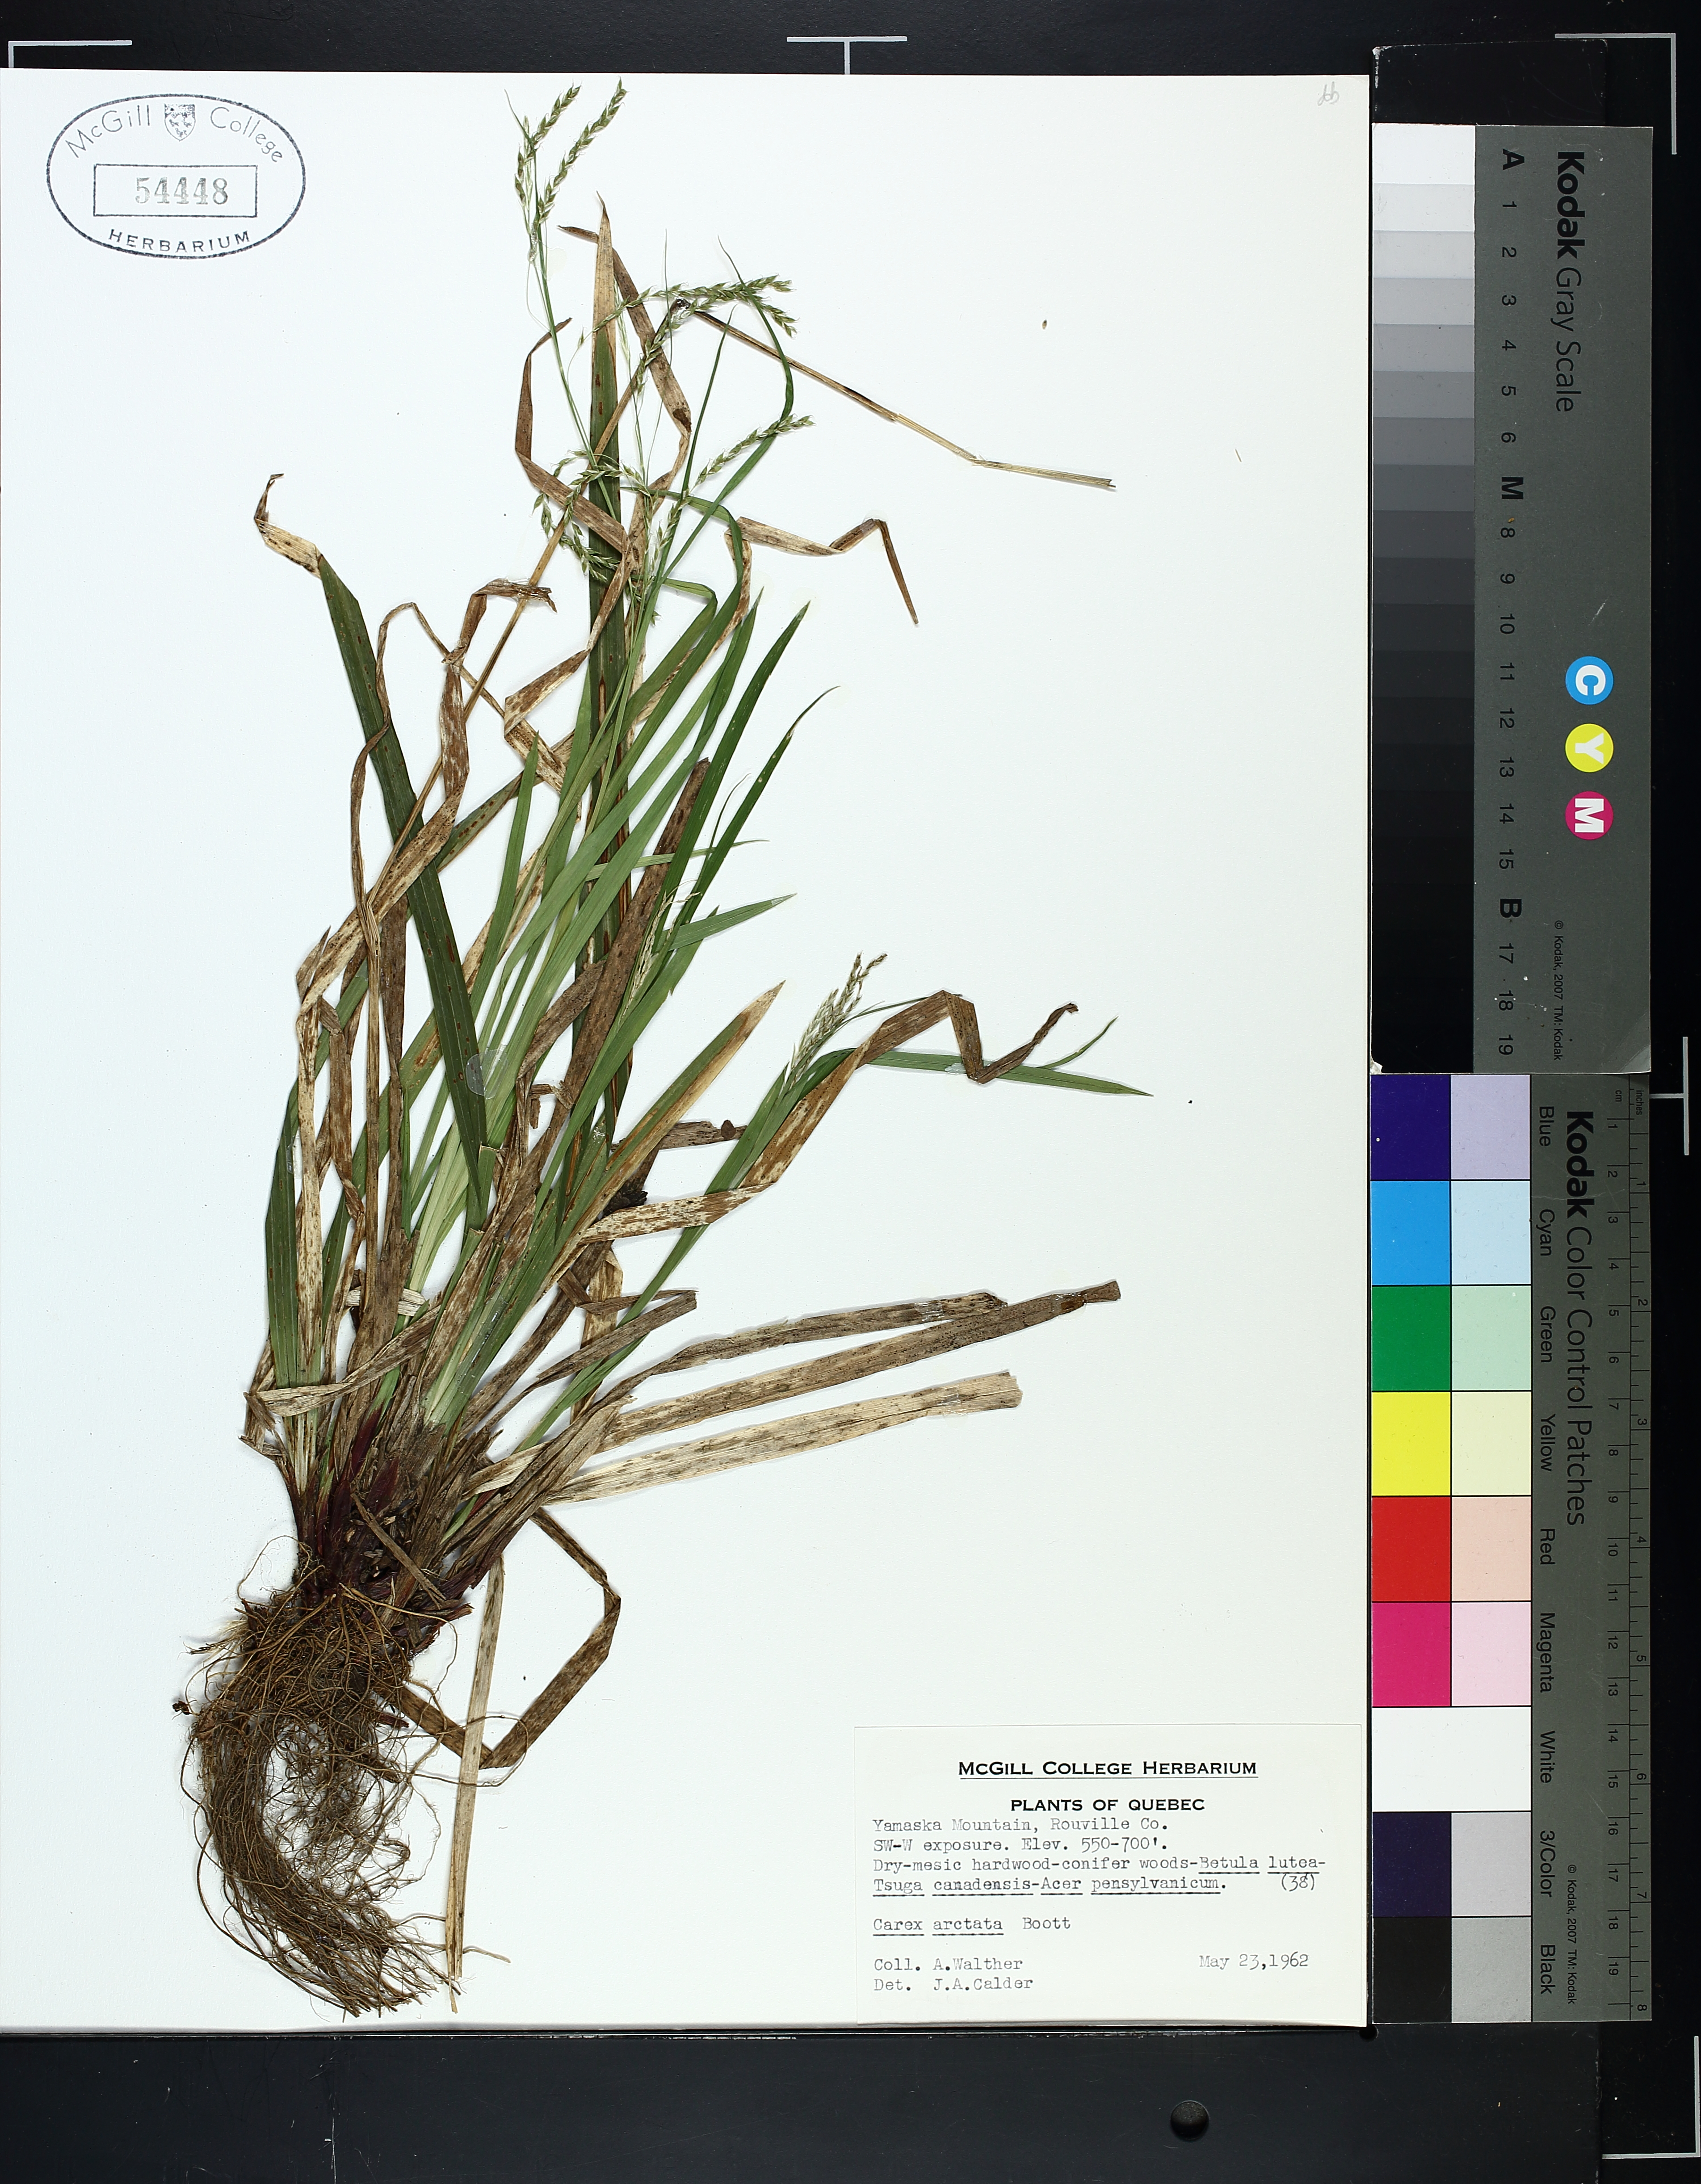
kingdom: Plantae
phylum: Tracheophyta
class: Liliopsida
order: Poales
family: Cyperaceae
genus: Carex
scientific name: Carex arctata
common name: Black sedge
